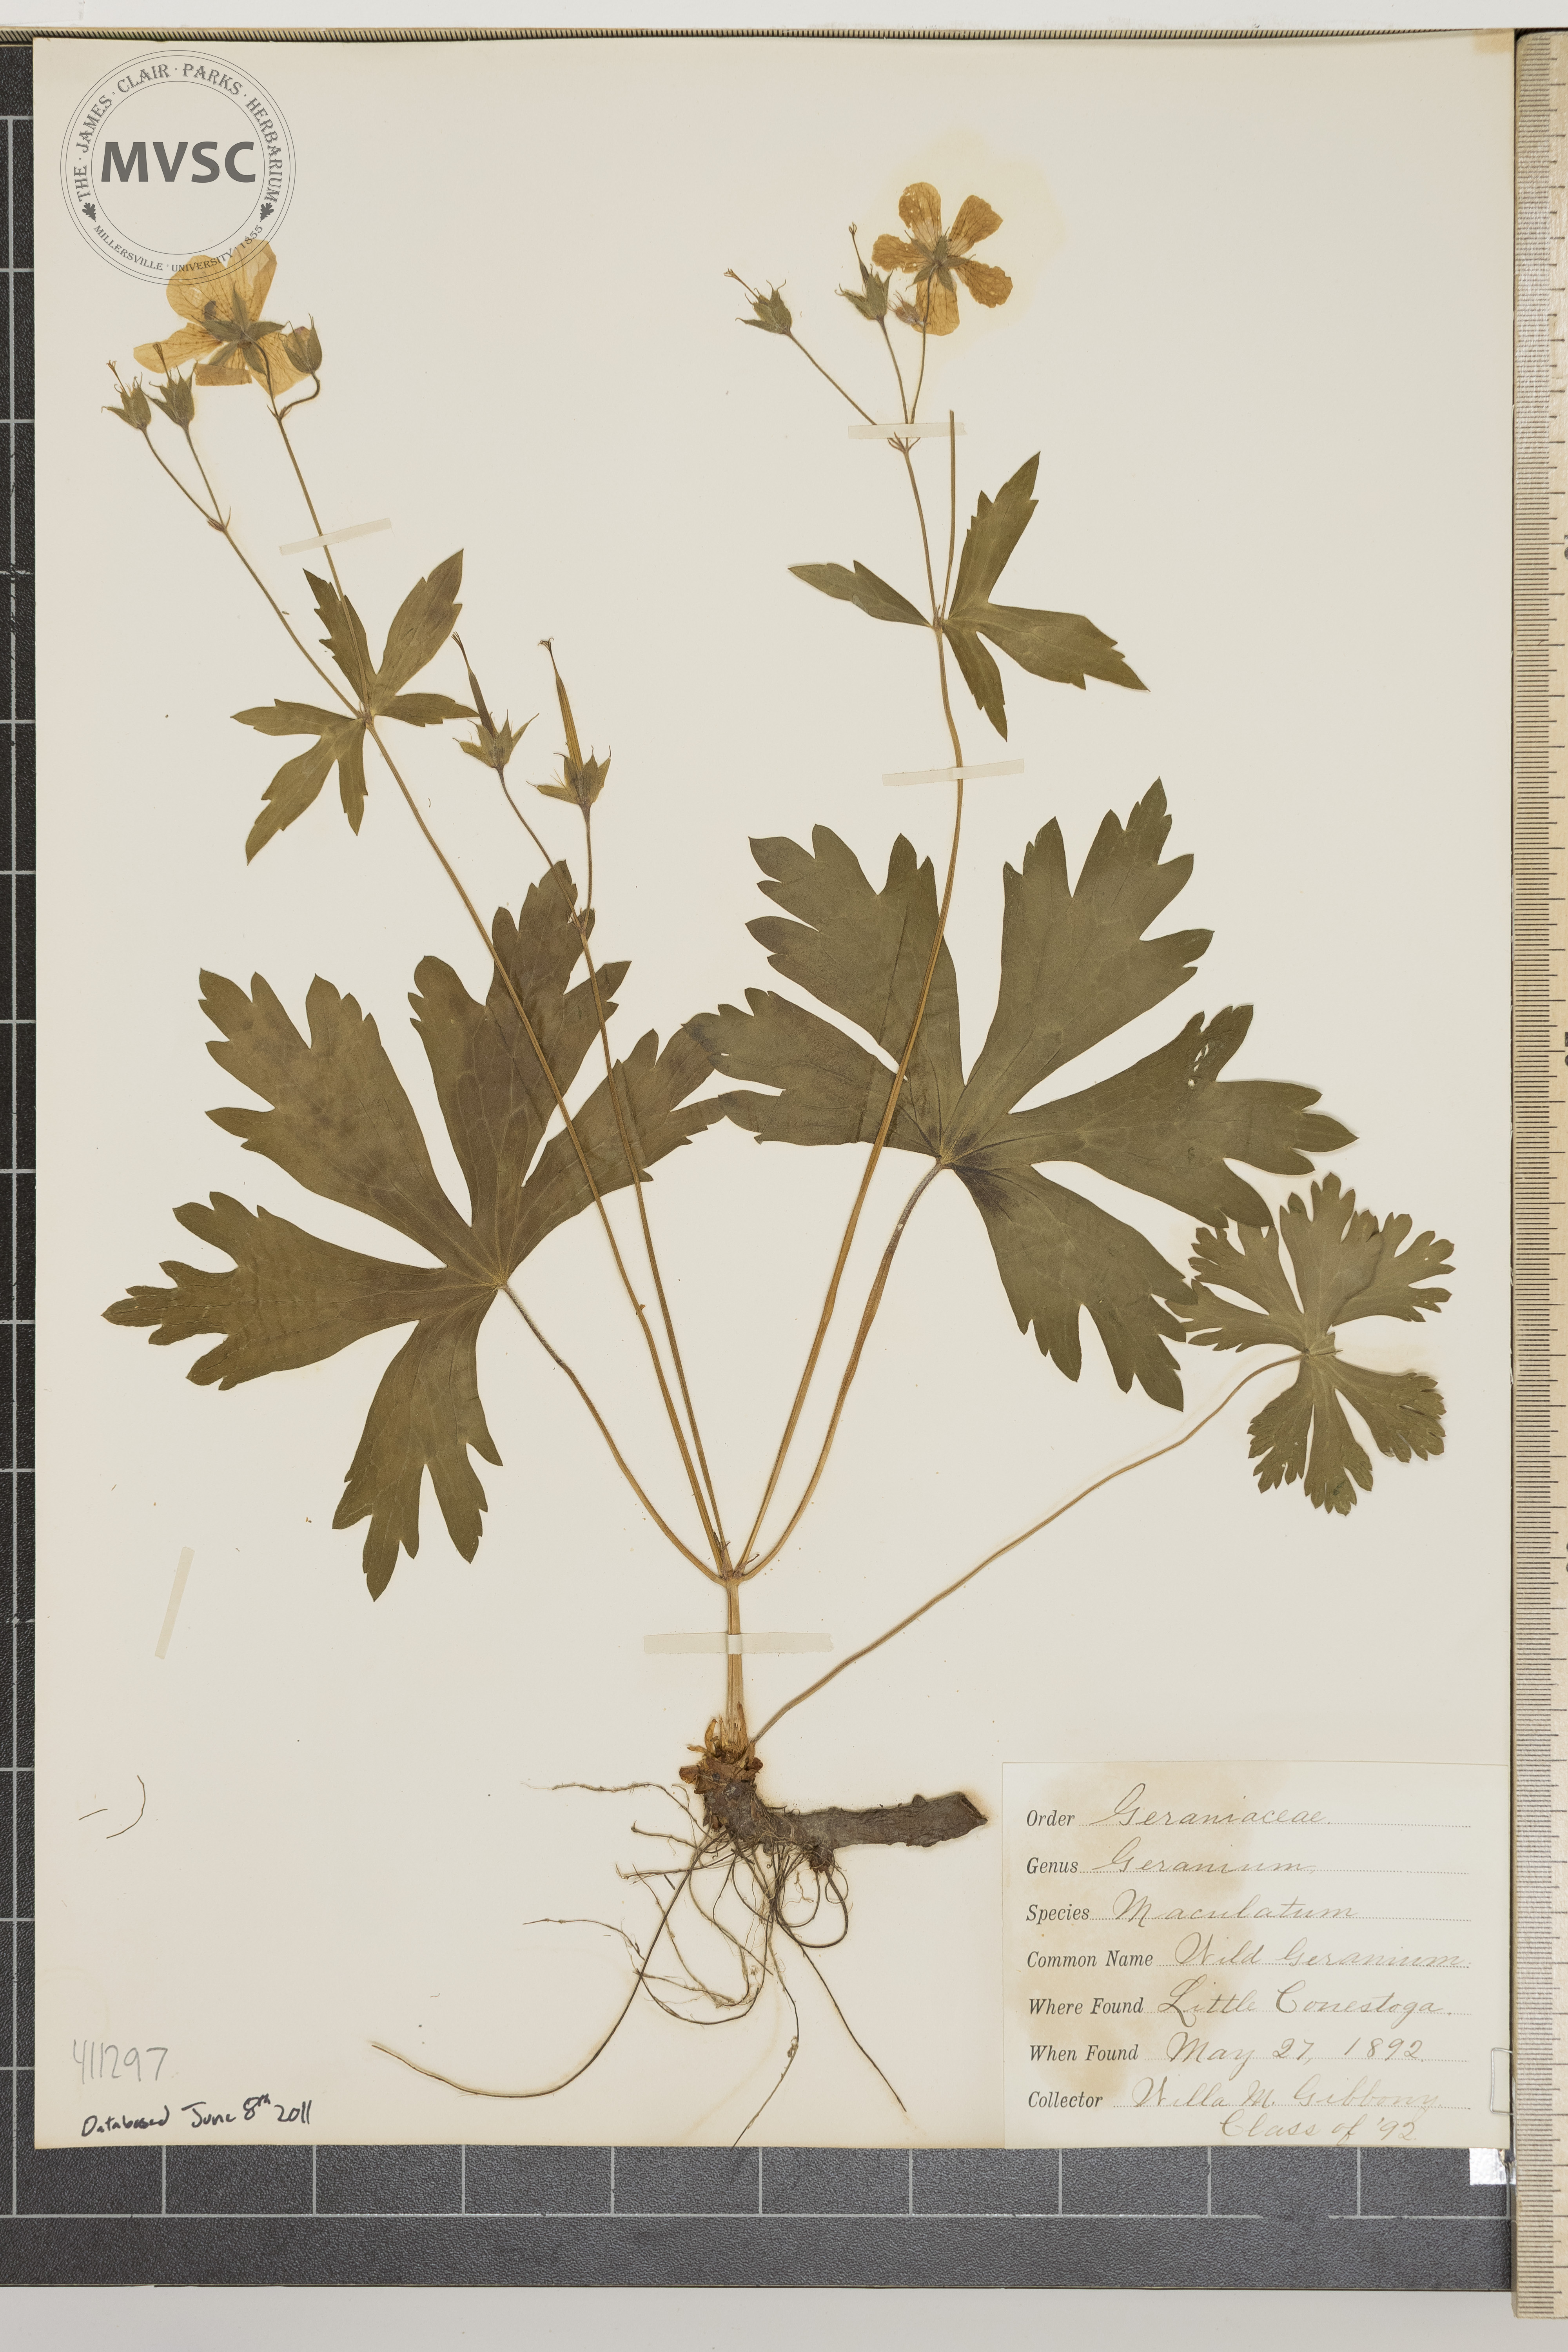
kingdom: Plantae
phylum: Tracheophyta
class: Magnoliopsida
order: Geraniales
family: Geraniaceae
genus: Geranium
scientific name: Geranium maculatum
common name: Spotted geranium
